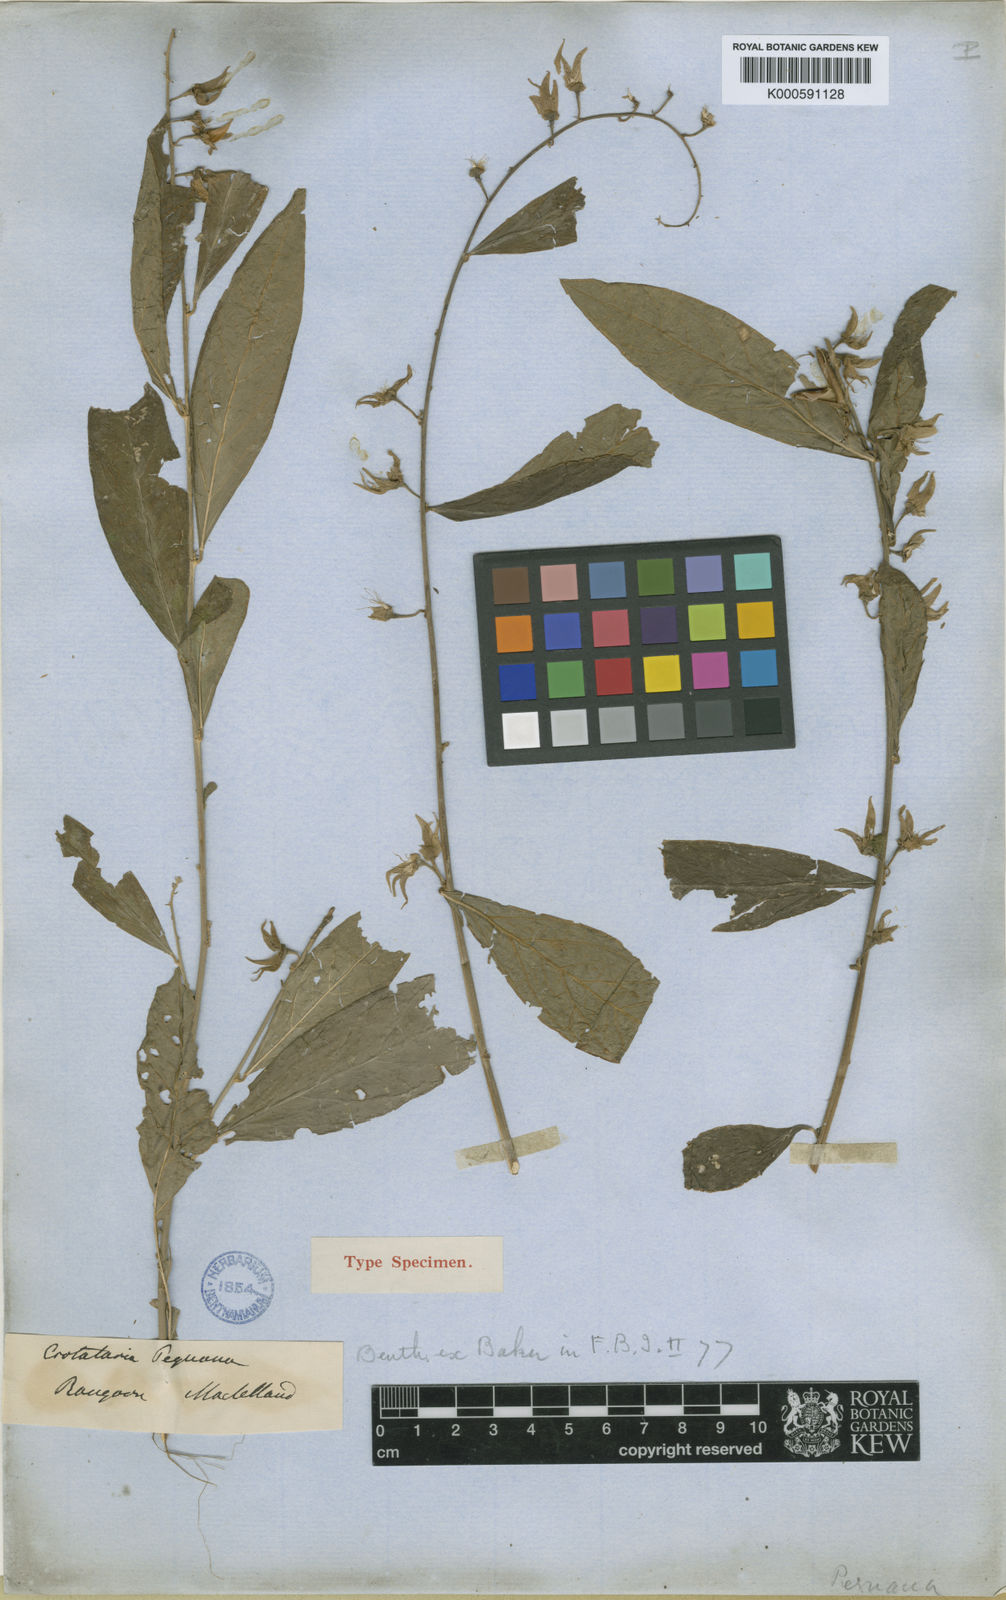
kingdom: Plantae
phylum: Tracheophyta
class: Magnoliopsida
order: Fabales
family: Fabaceae
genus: Crotalaria
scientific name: Crotalaria kurzii
